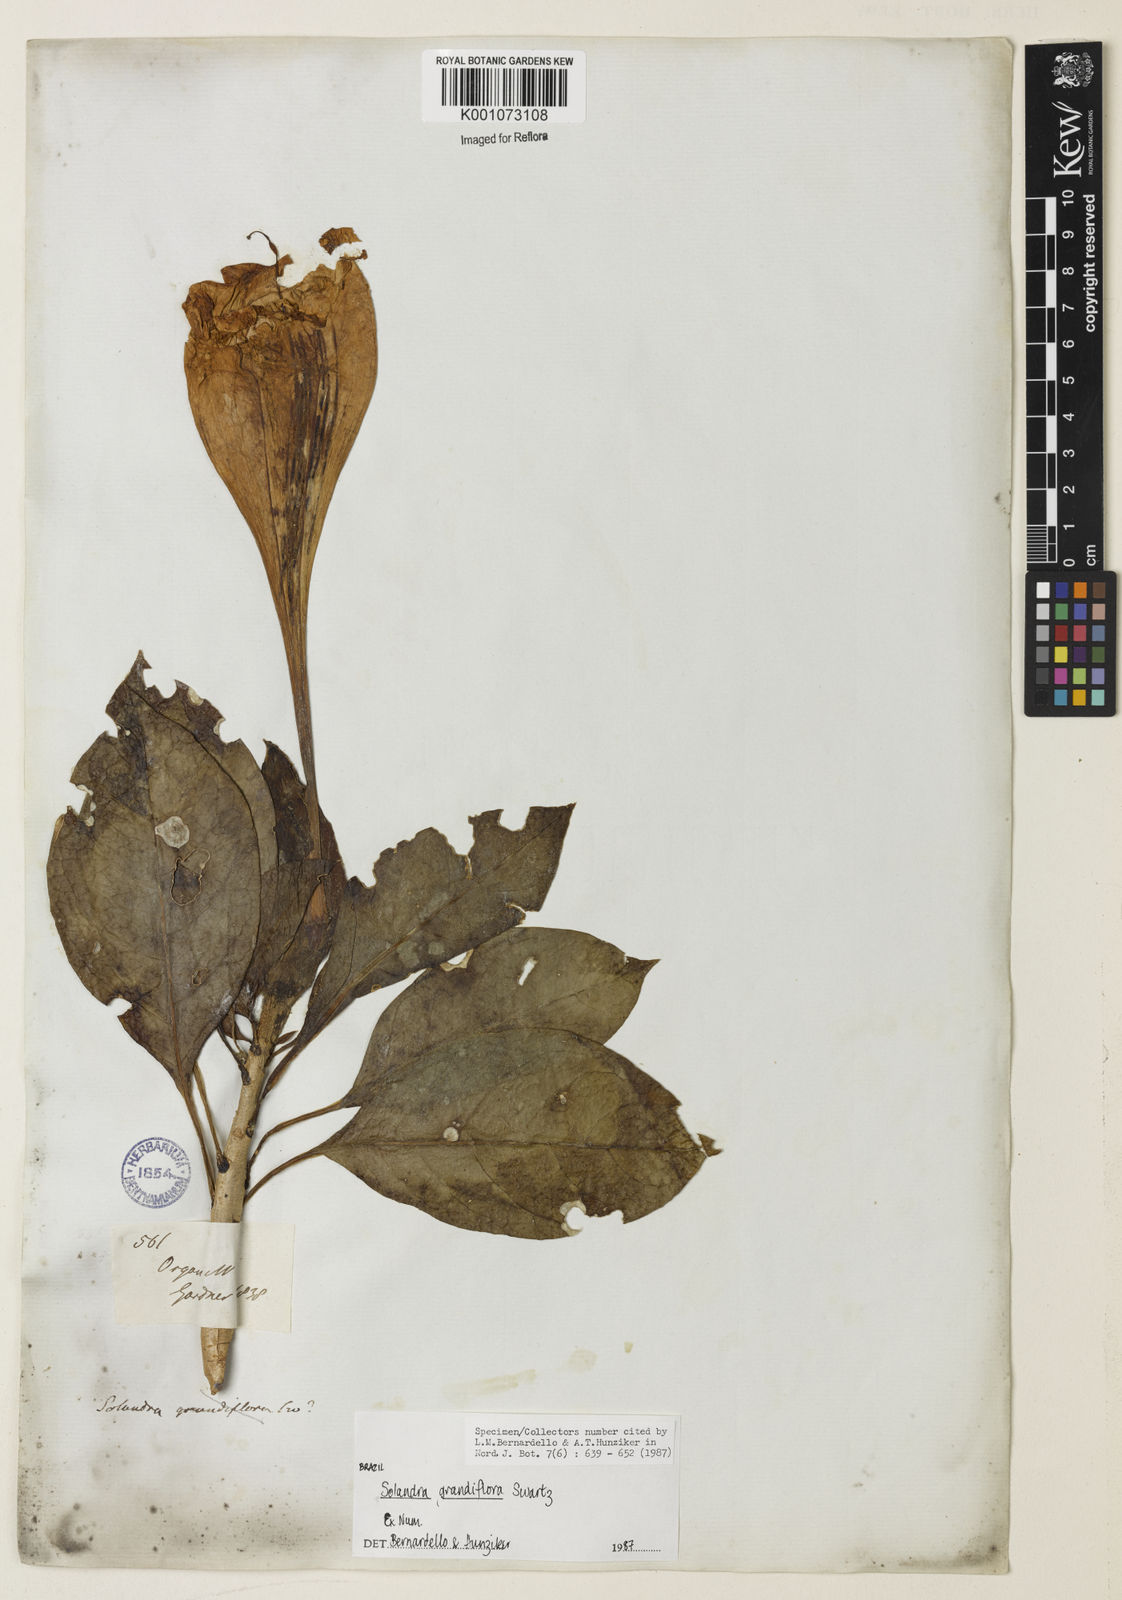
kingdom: Plantae
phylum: Tracheophyta
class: Magnoliopsida
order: Solanales
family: Solanaceae
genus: Solandra
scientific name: Solandra grandiflora
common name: Showy chalicevine
